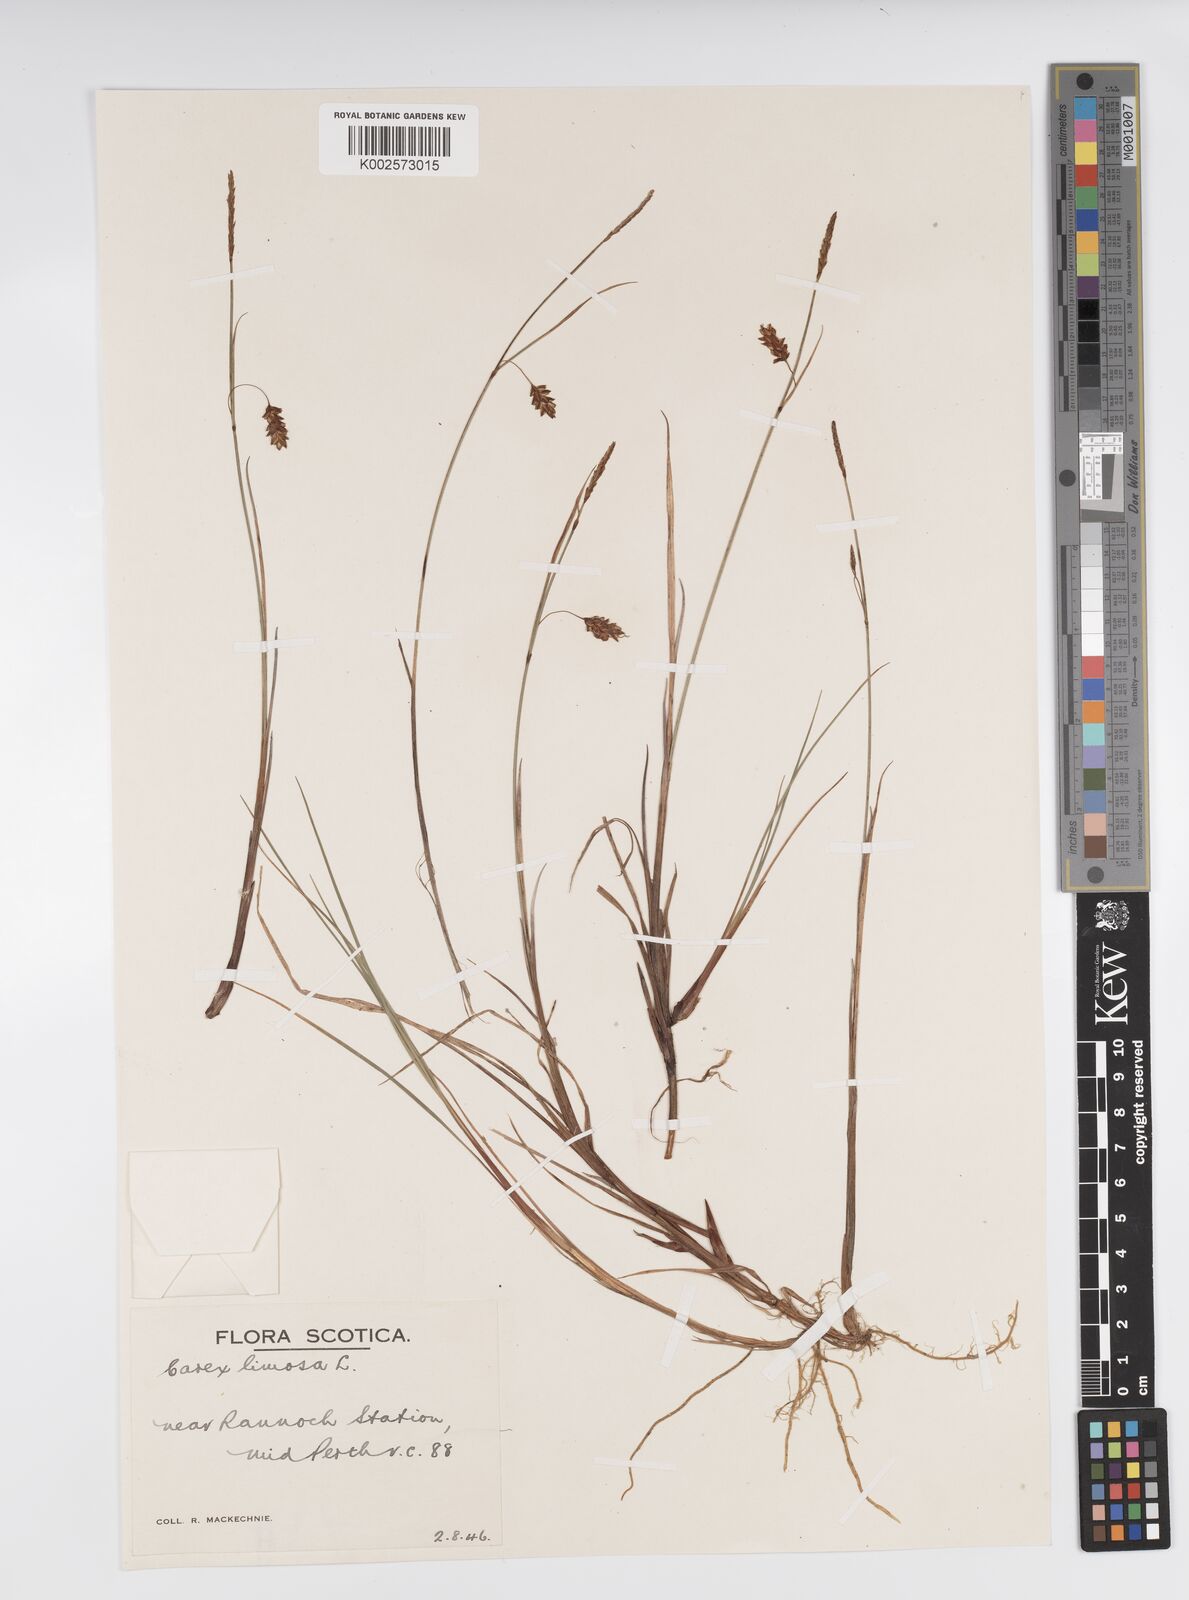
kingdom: Plantae
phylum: Tracheophyta
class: Liliopsida
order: Poales
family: Cyperaceae
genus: Carex
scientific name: Carex limosa
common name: Bog sedge
